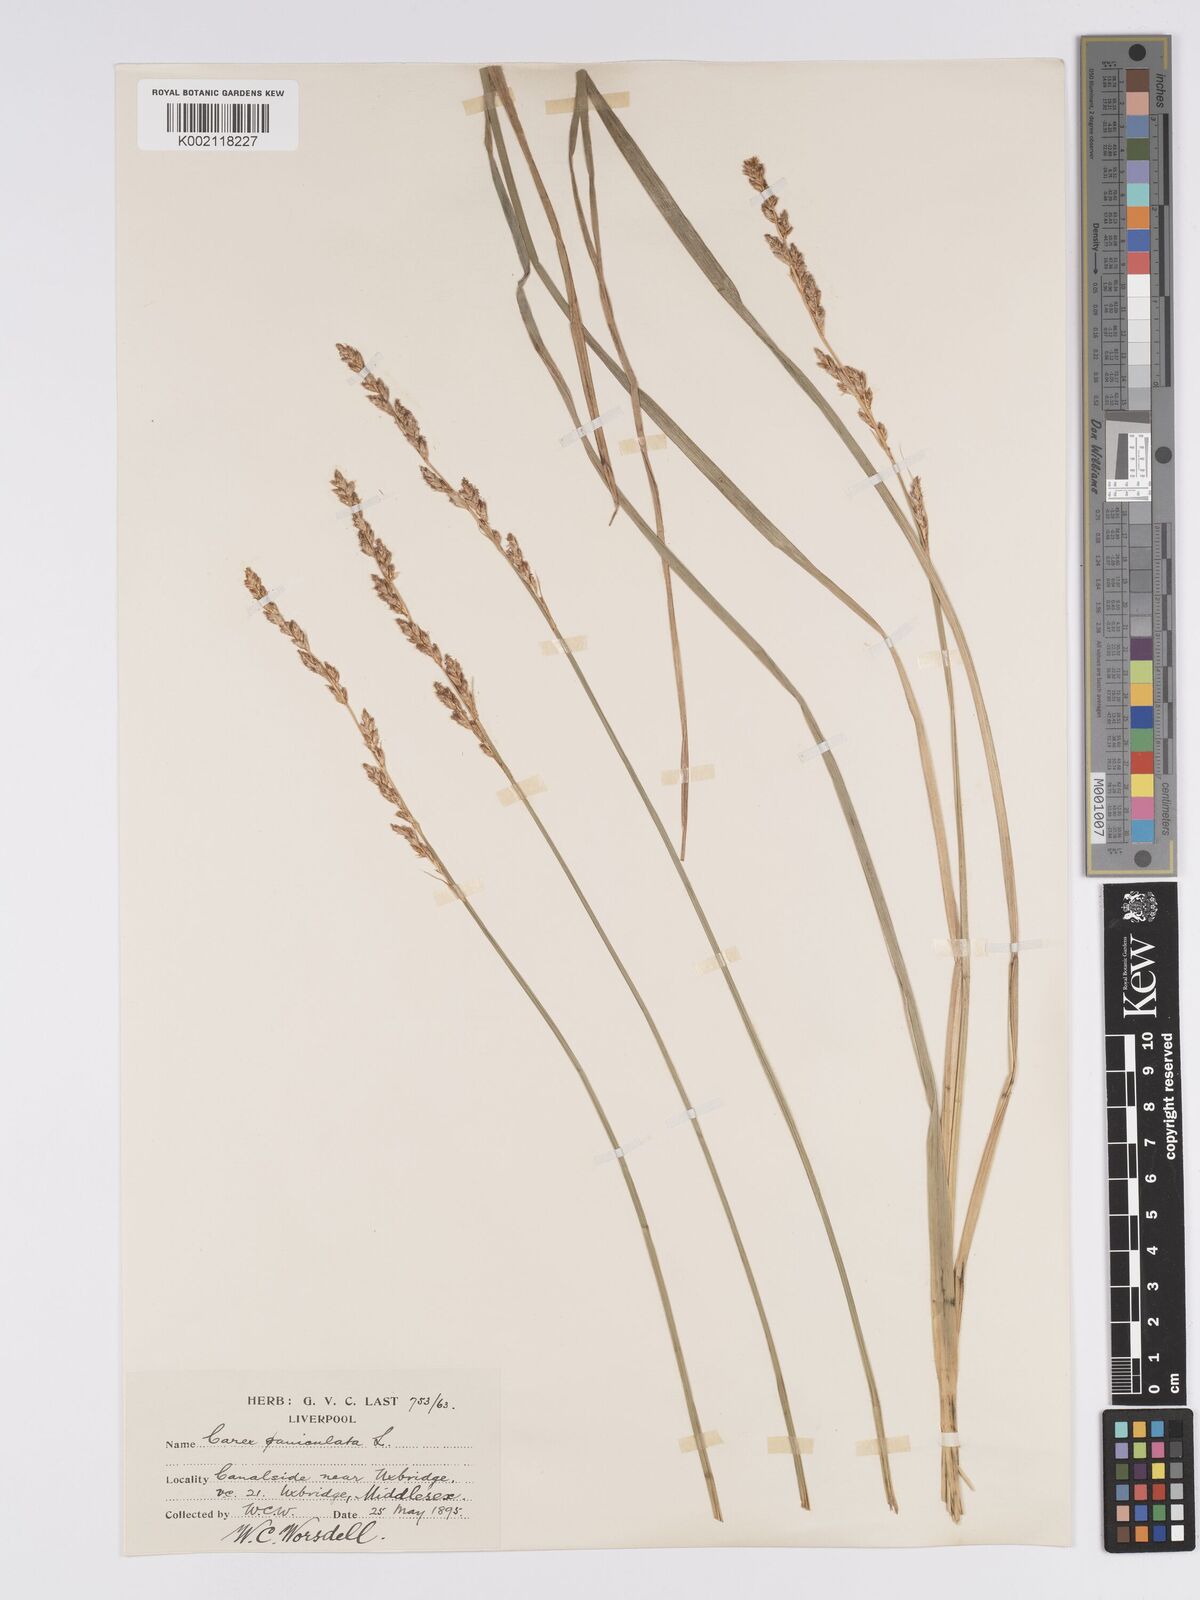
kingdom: Plantae
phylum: Tracheophyta
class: Liliopsida
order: Poales
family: Cyperaceae
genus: Carex
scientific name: Carex paniculata
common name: Greater tussock-sedge
